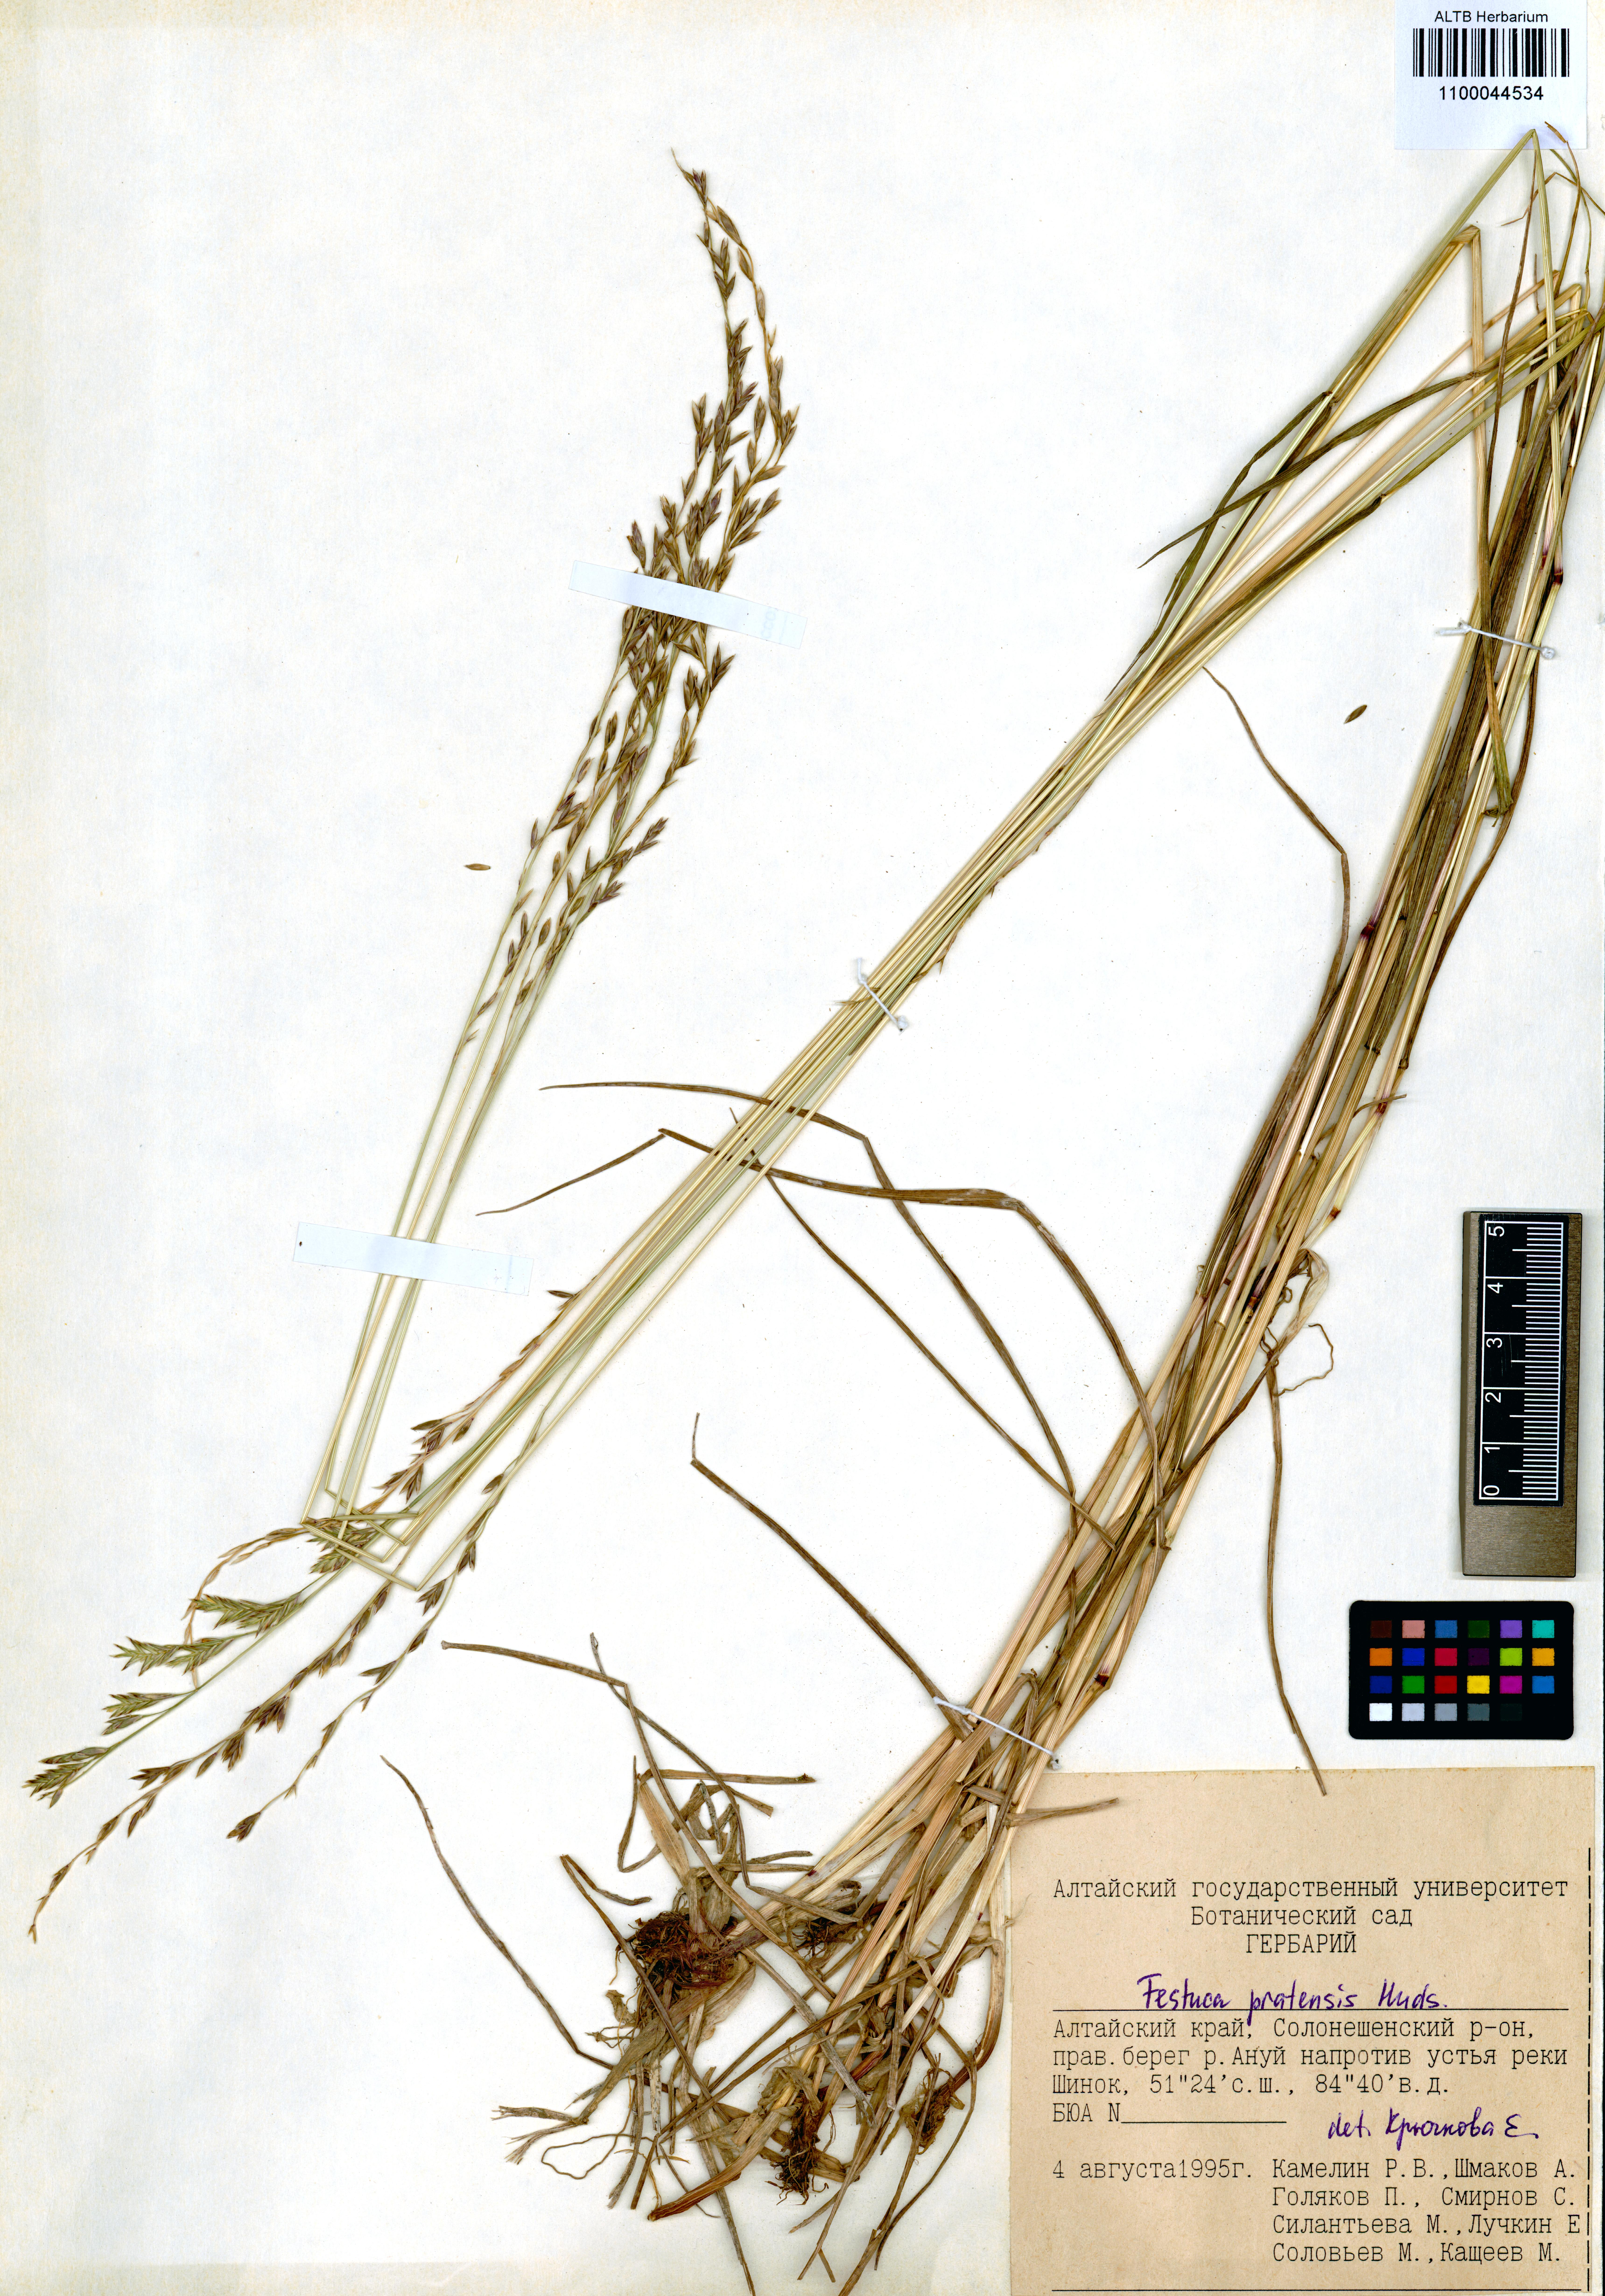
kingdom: Plantae
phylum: Tracheophyta
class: Liliopsida
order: Poales
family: Poaceae
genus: Lolium
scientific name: Lolium pratense
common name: Dover grass
